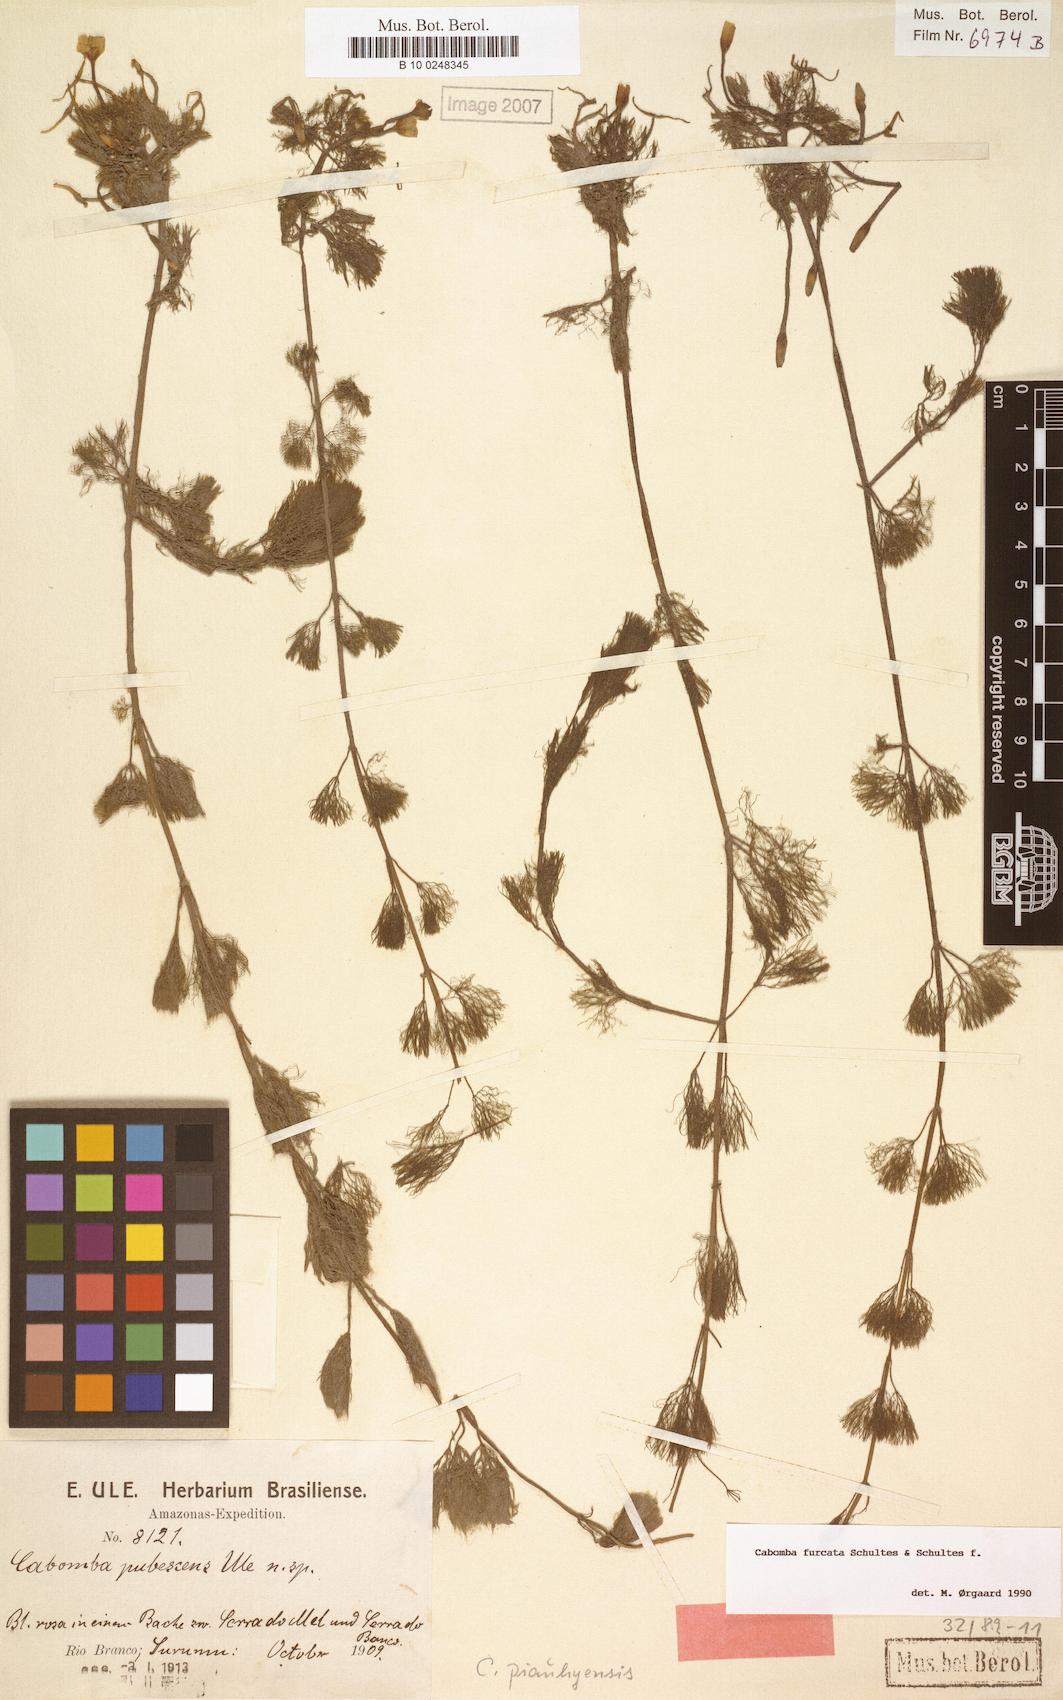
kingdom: Plantae
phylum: Tracheophyta
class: Magnoliopsida
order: Nymphaeales
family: Cabombaceae
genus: Cabomba
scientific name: Cabomba furcata
